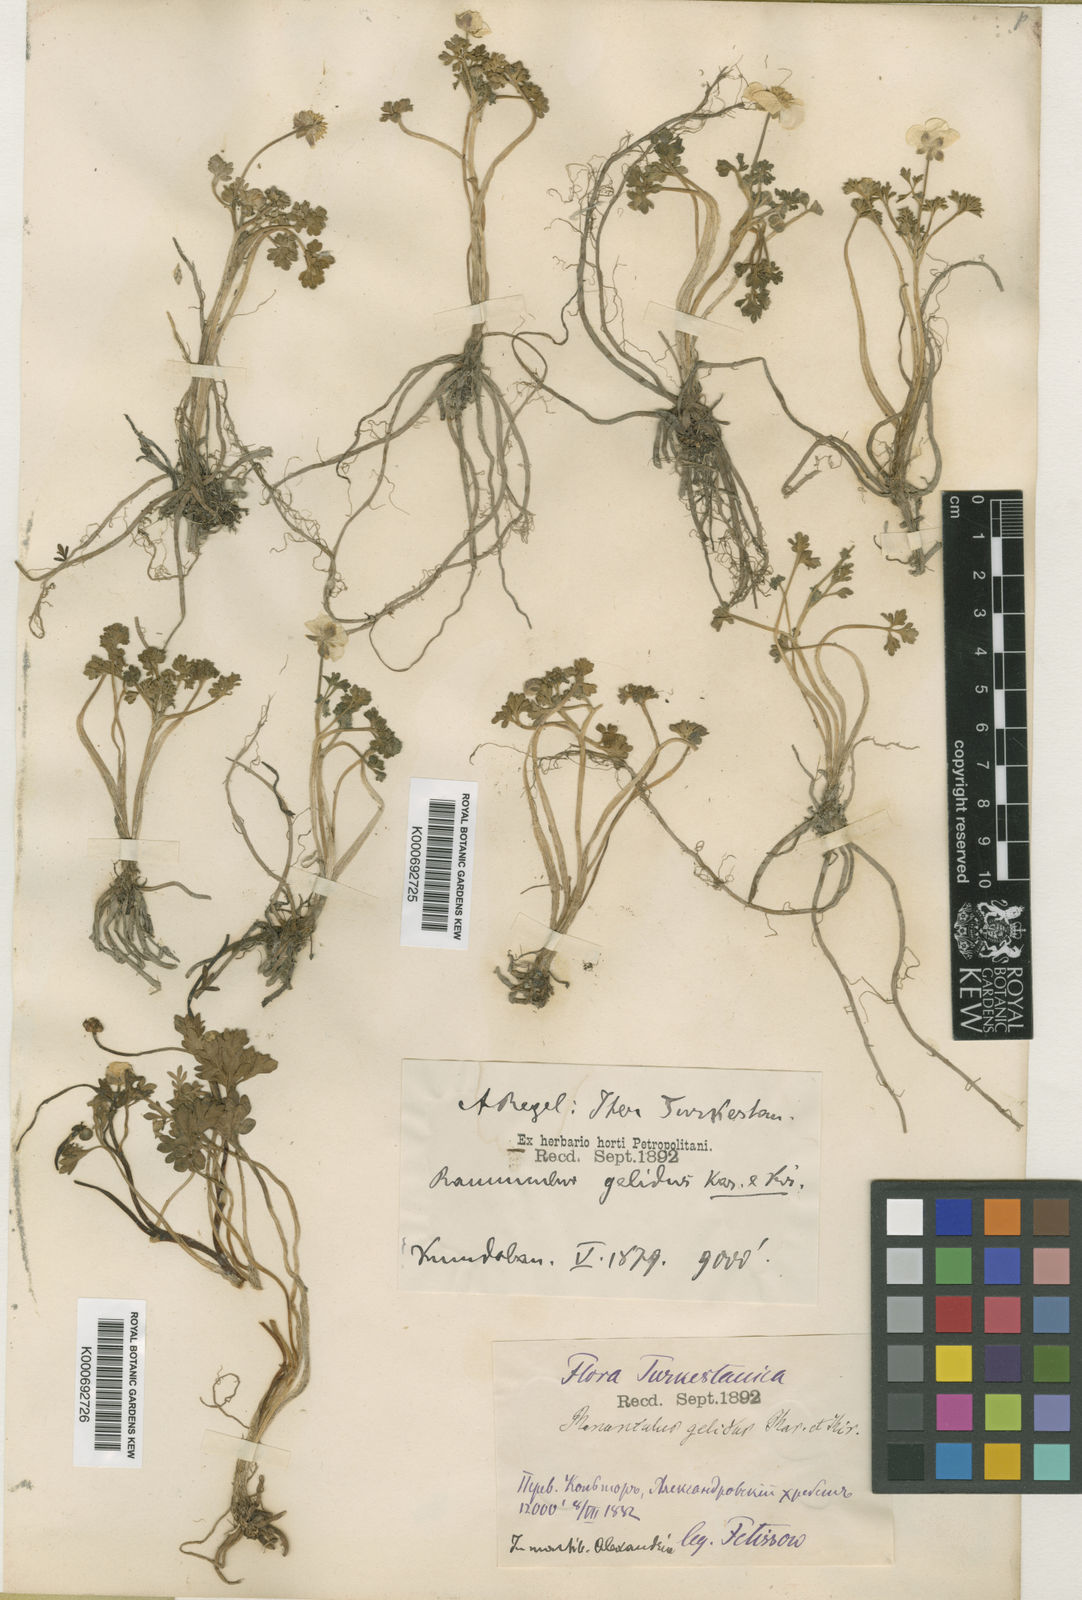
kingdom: Plantae
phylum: Tracheophyta
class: Magnoliopsida
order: Ranunculales
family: Ranunculaceae
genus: Ranunculus
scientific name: Ranunculus karelinii
